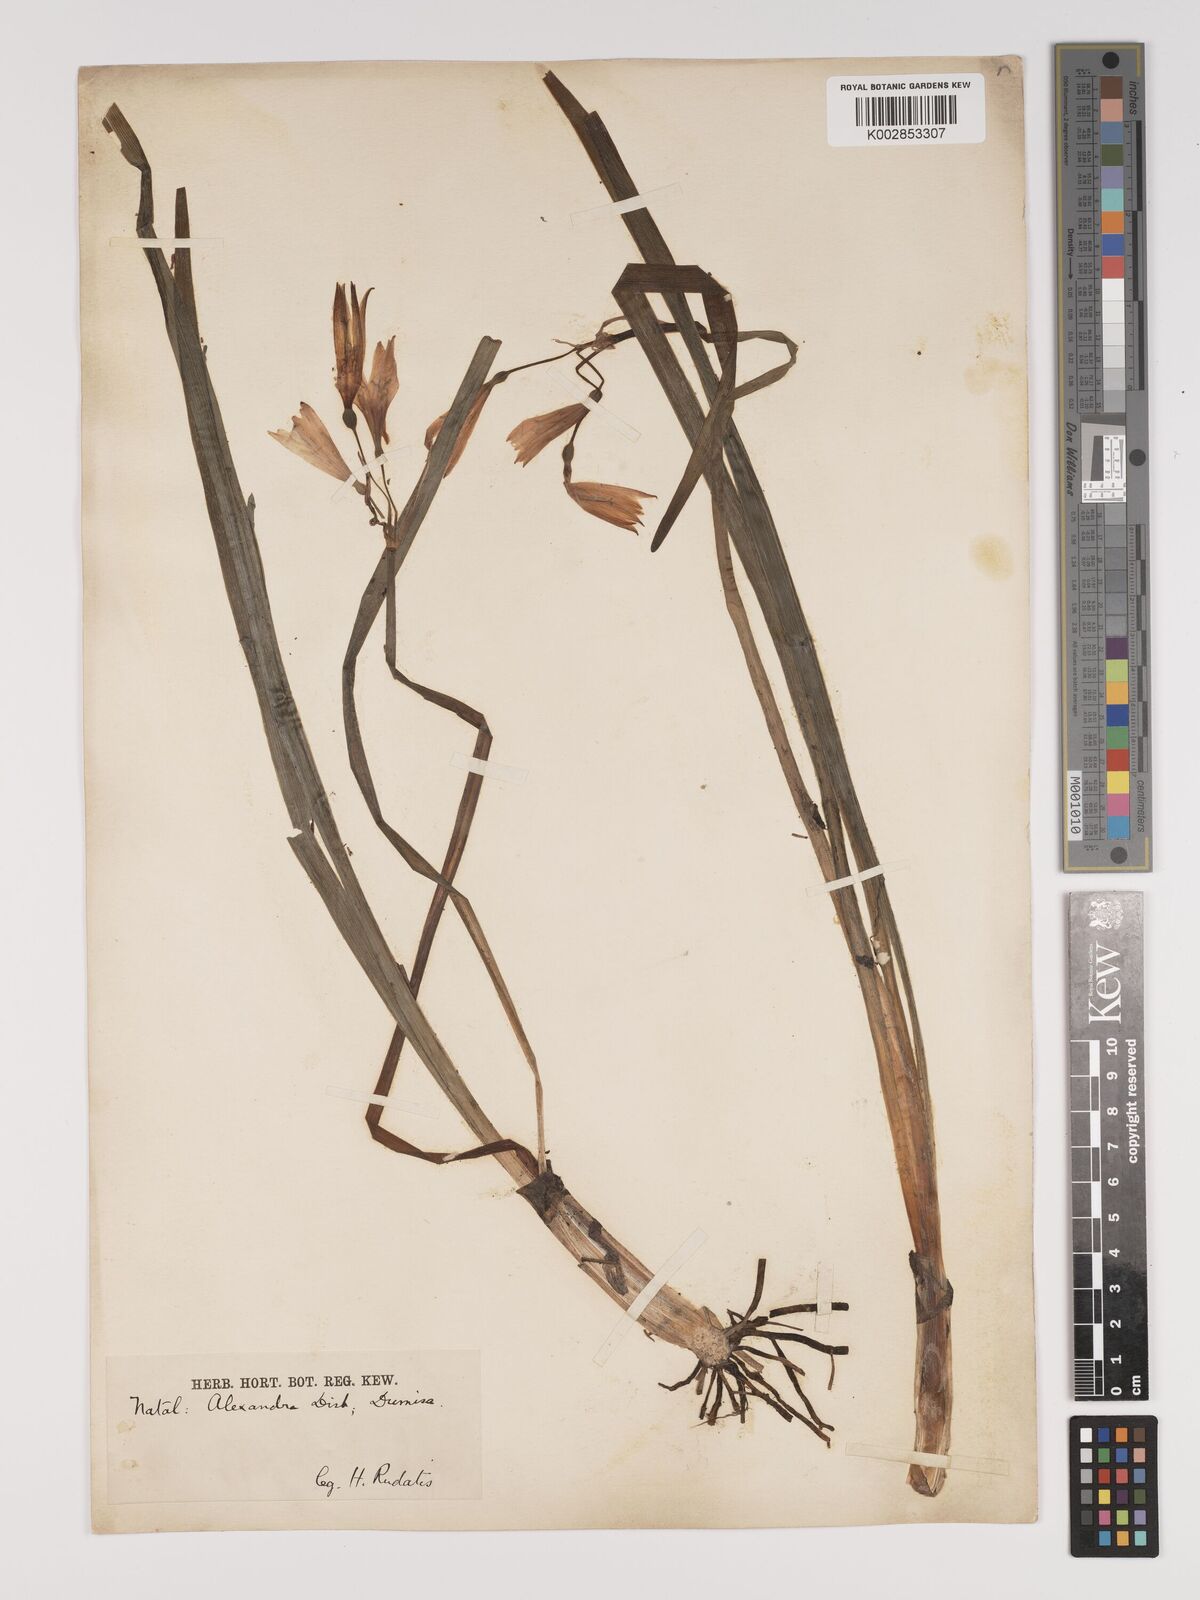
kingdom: Plantae
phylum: Tracheophyta
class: Liliopsida
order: Asparagales
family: Amaryllidaceae
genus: Cyrtanthus
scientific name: Cyrtanthus breviflorus
